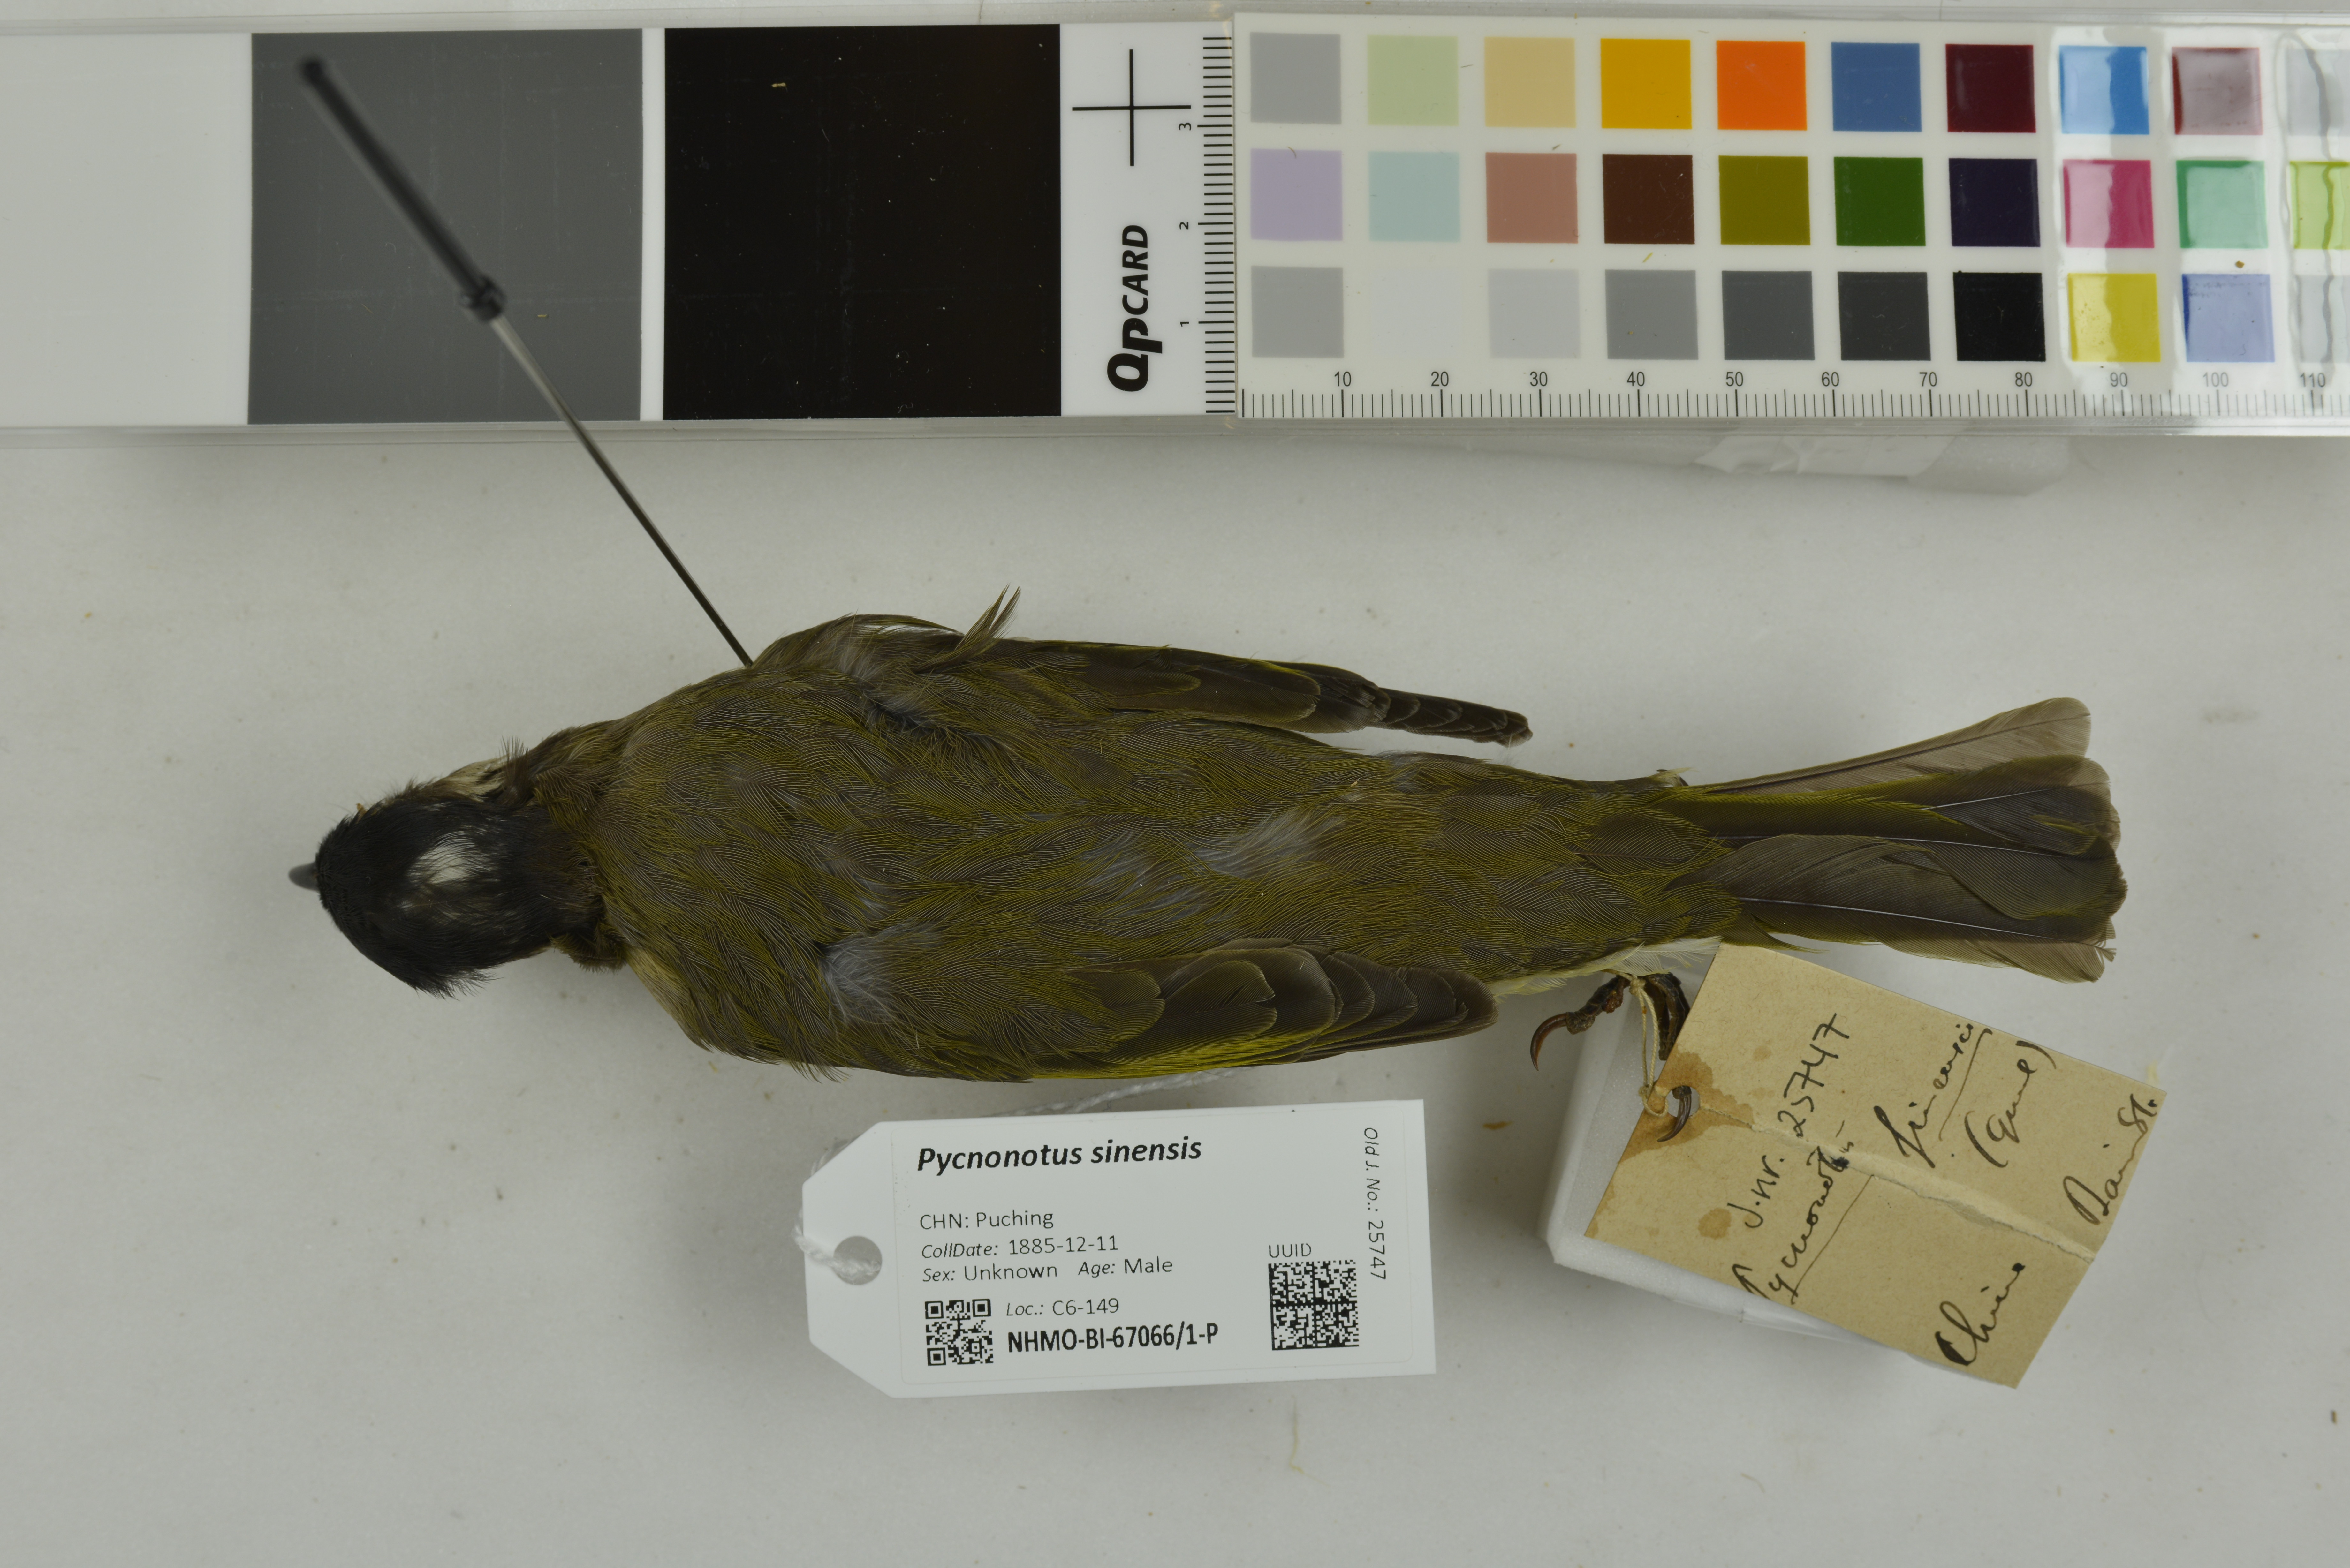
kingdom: Animalia
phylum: Chordata
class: Aves
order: Passeriformes
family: Pycnonotidae
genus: Pycnonotus
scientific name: Pycnonotus sinensis
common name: Light-vented bulbul
